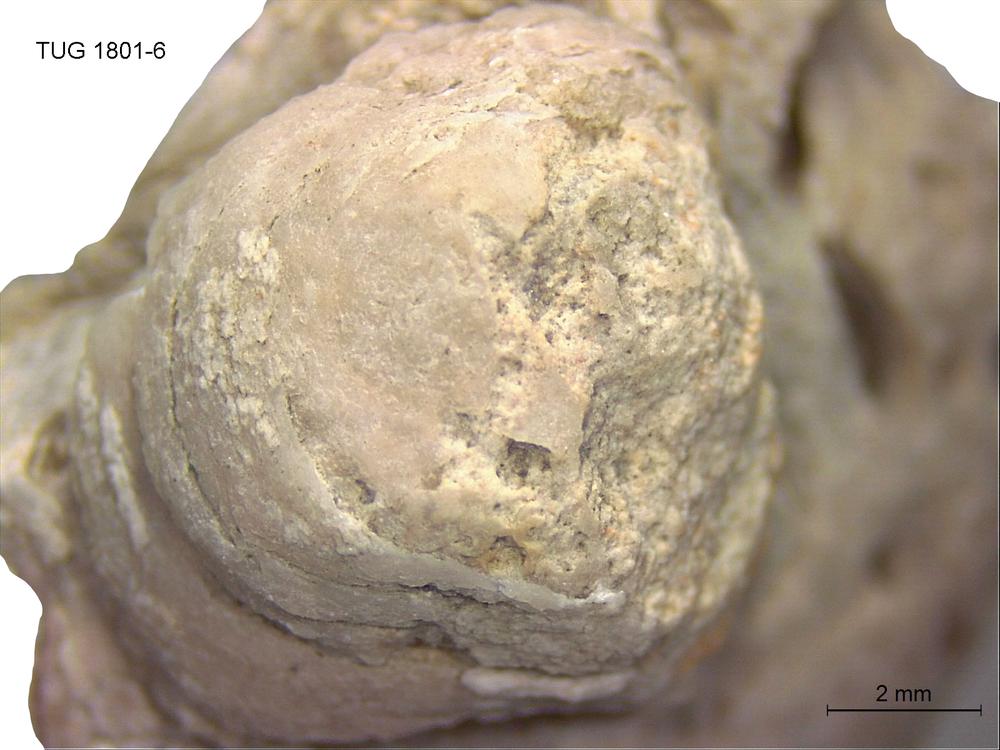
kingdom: Animalia
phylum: Brachiopoda
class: Craniata
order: Craniida
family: Craniidae
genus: Philhedra
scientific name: Philhedra
